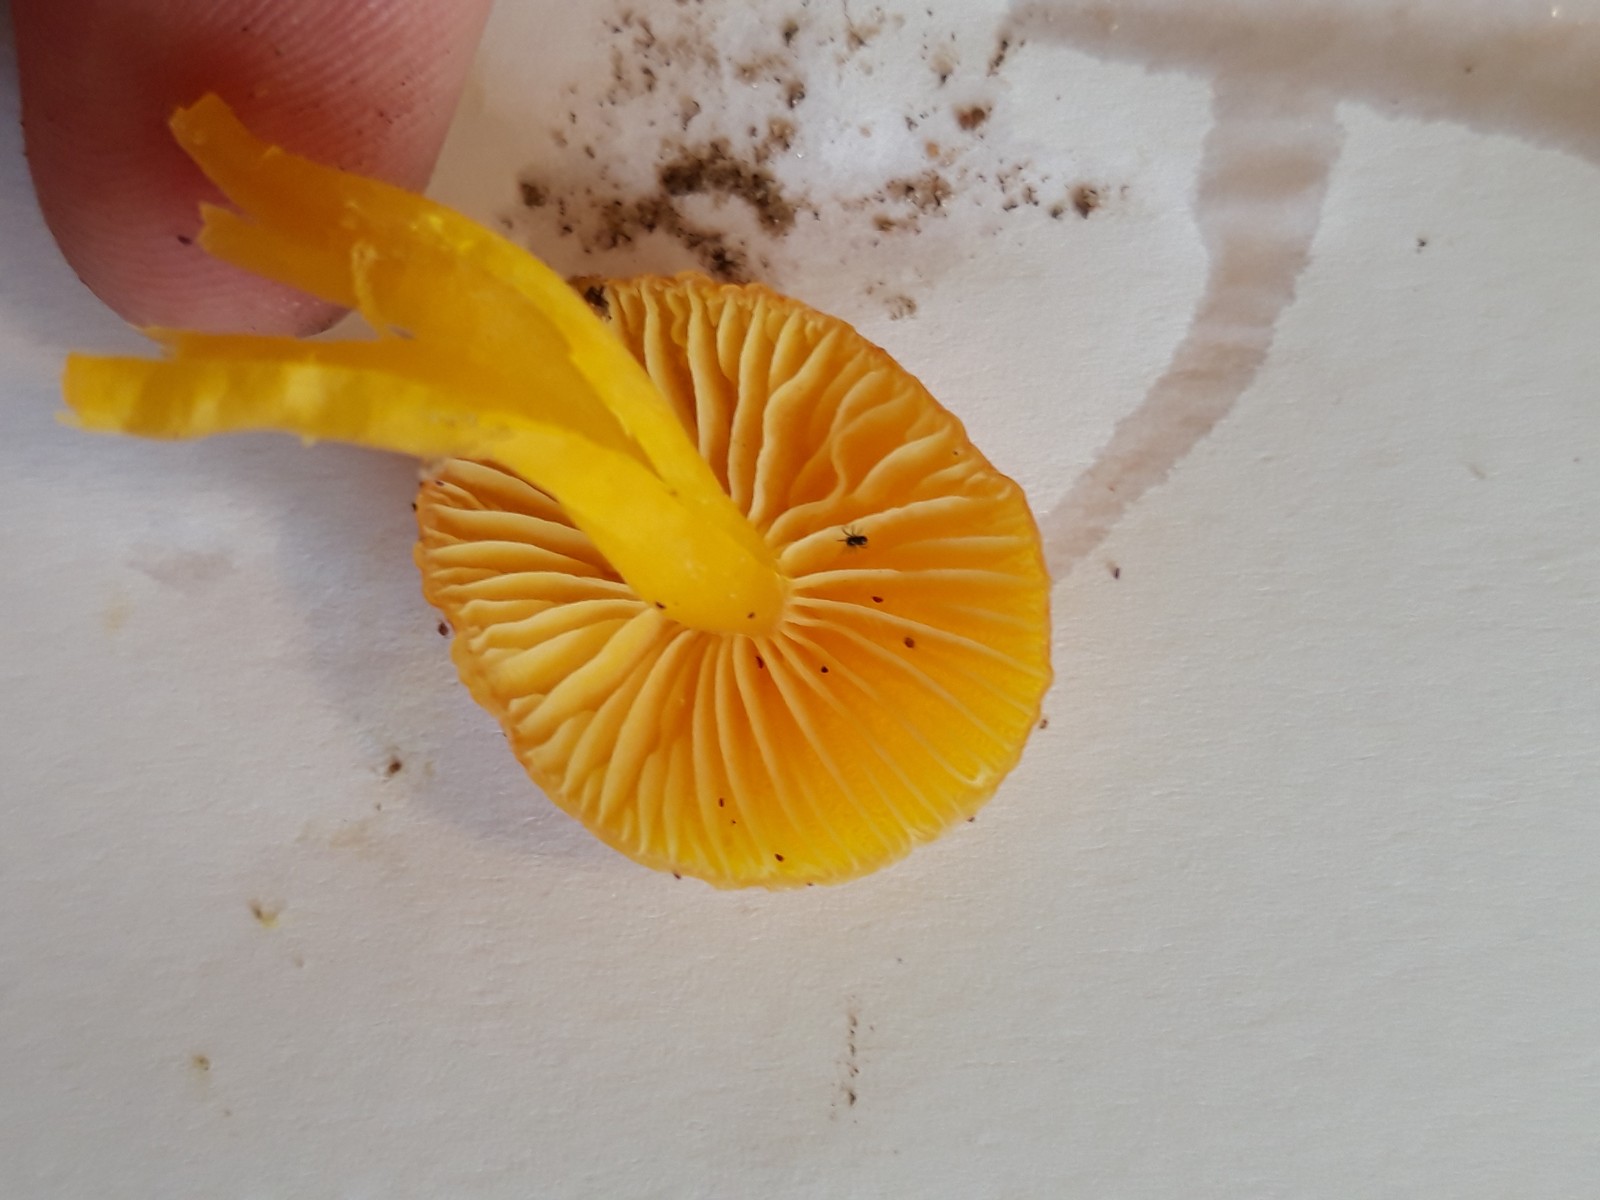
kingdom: Fungi
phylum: Basidiomycota
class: Agaricomycetes
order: Agaricales
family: Hygrophoraceae
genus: Hygrocybe
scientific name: Hygrocybe ceracea
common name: voksgul vokshat
